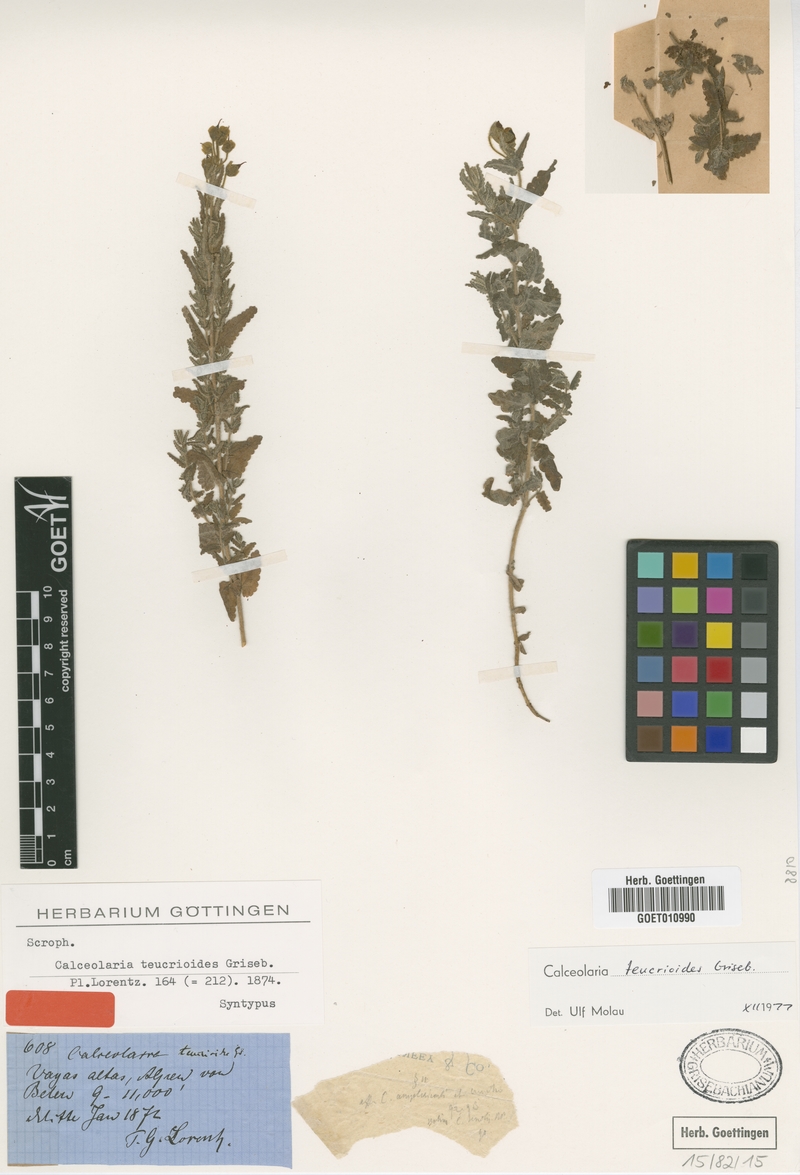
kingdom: Plantae
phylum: Tracheophyta
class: Magnoliopsida
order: Lamiales
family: Calceolariaceae
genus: Calceolaria
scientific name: Calceolaria teucrioides
